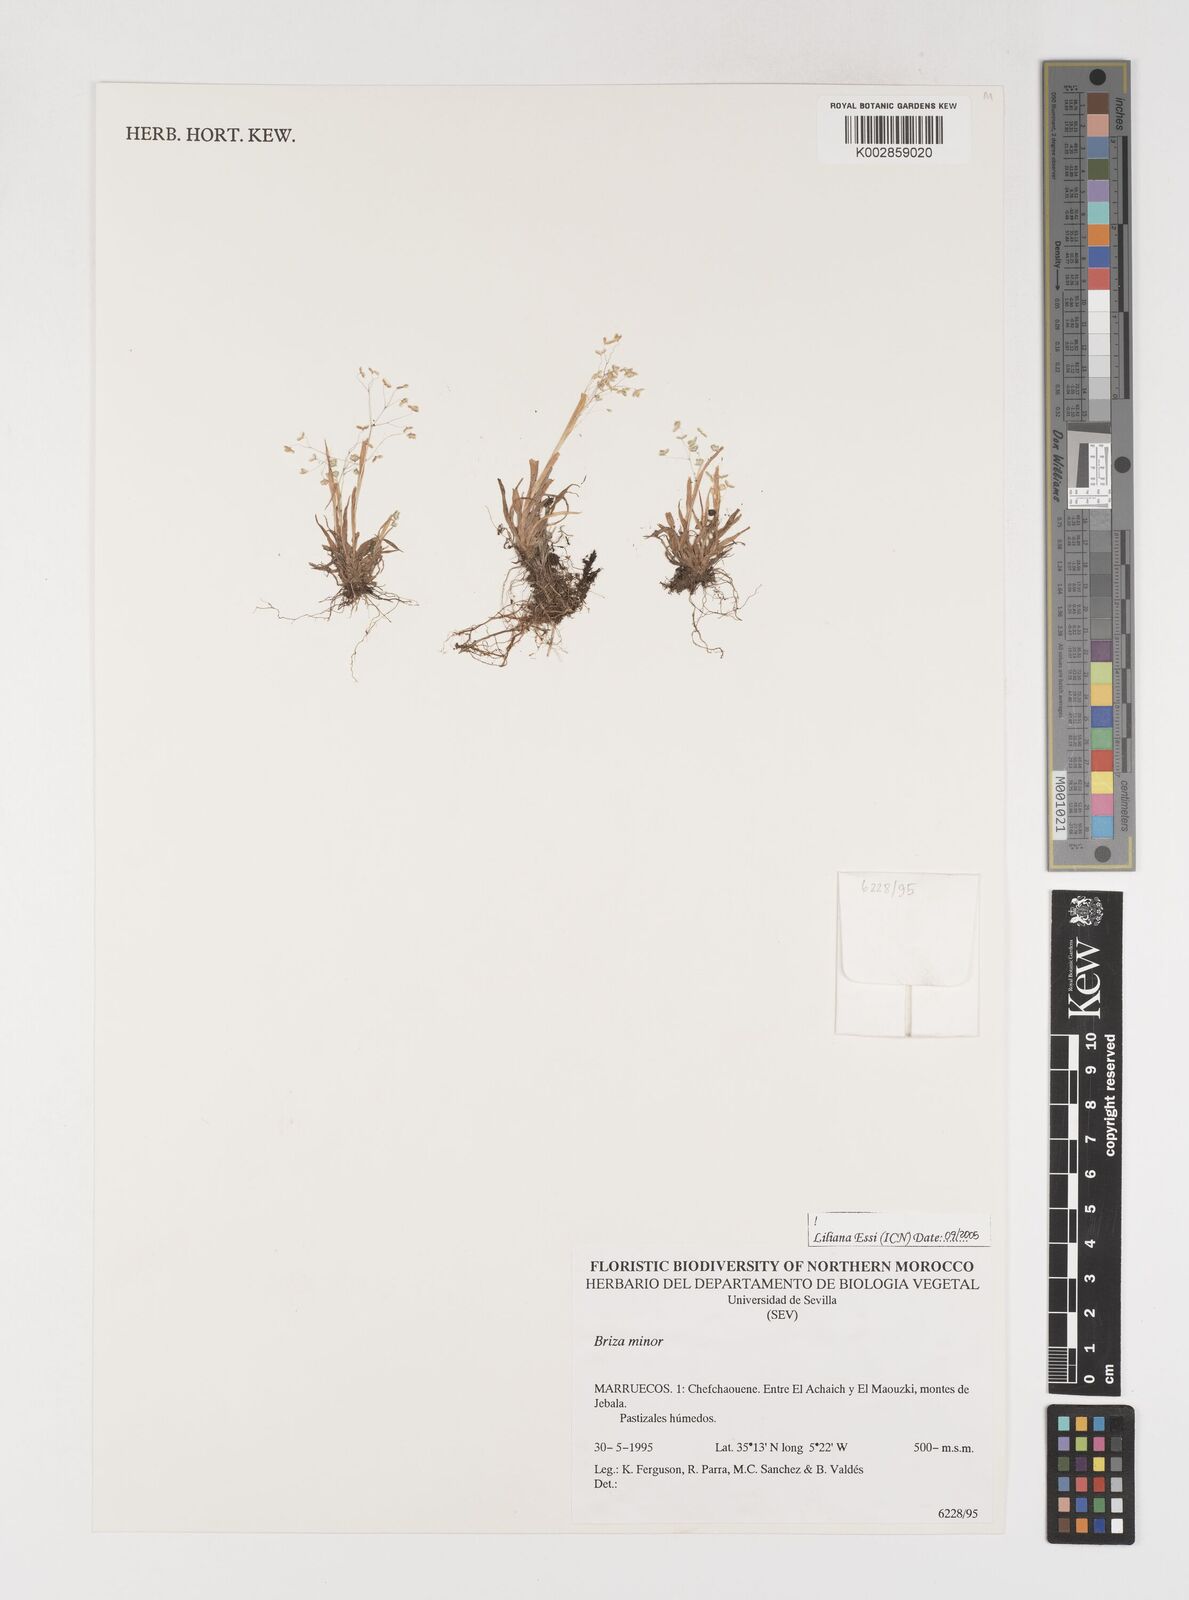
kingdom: Plantae
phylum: Tracheophyta
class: Liliopsida
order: Poales
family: Poaceae
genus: Briza
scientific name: Briza minor
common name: Lesser quaking-grass
